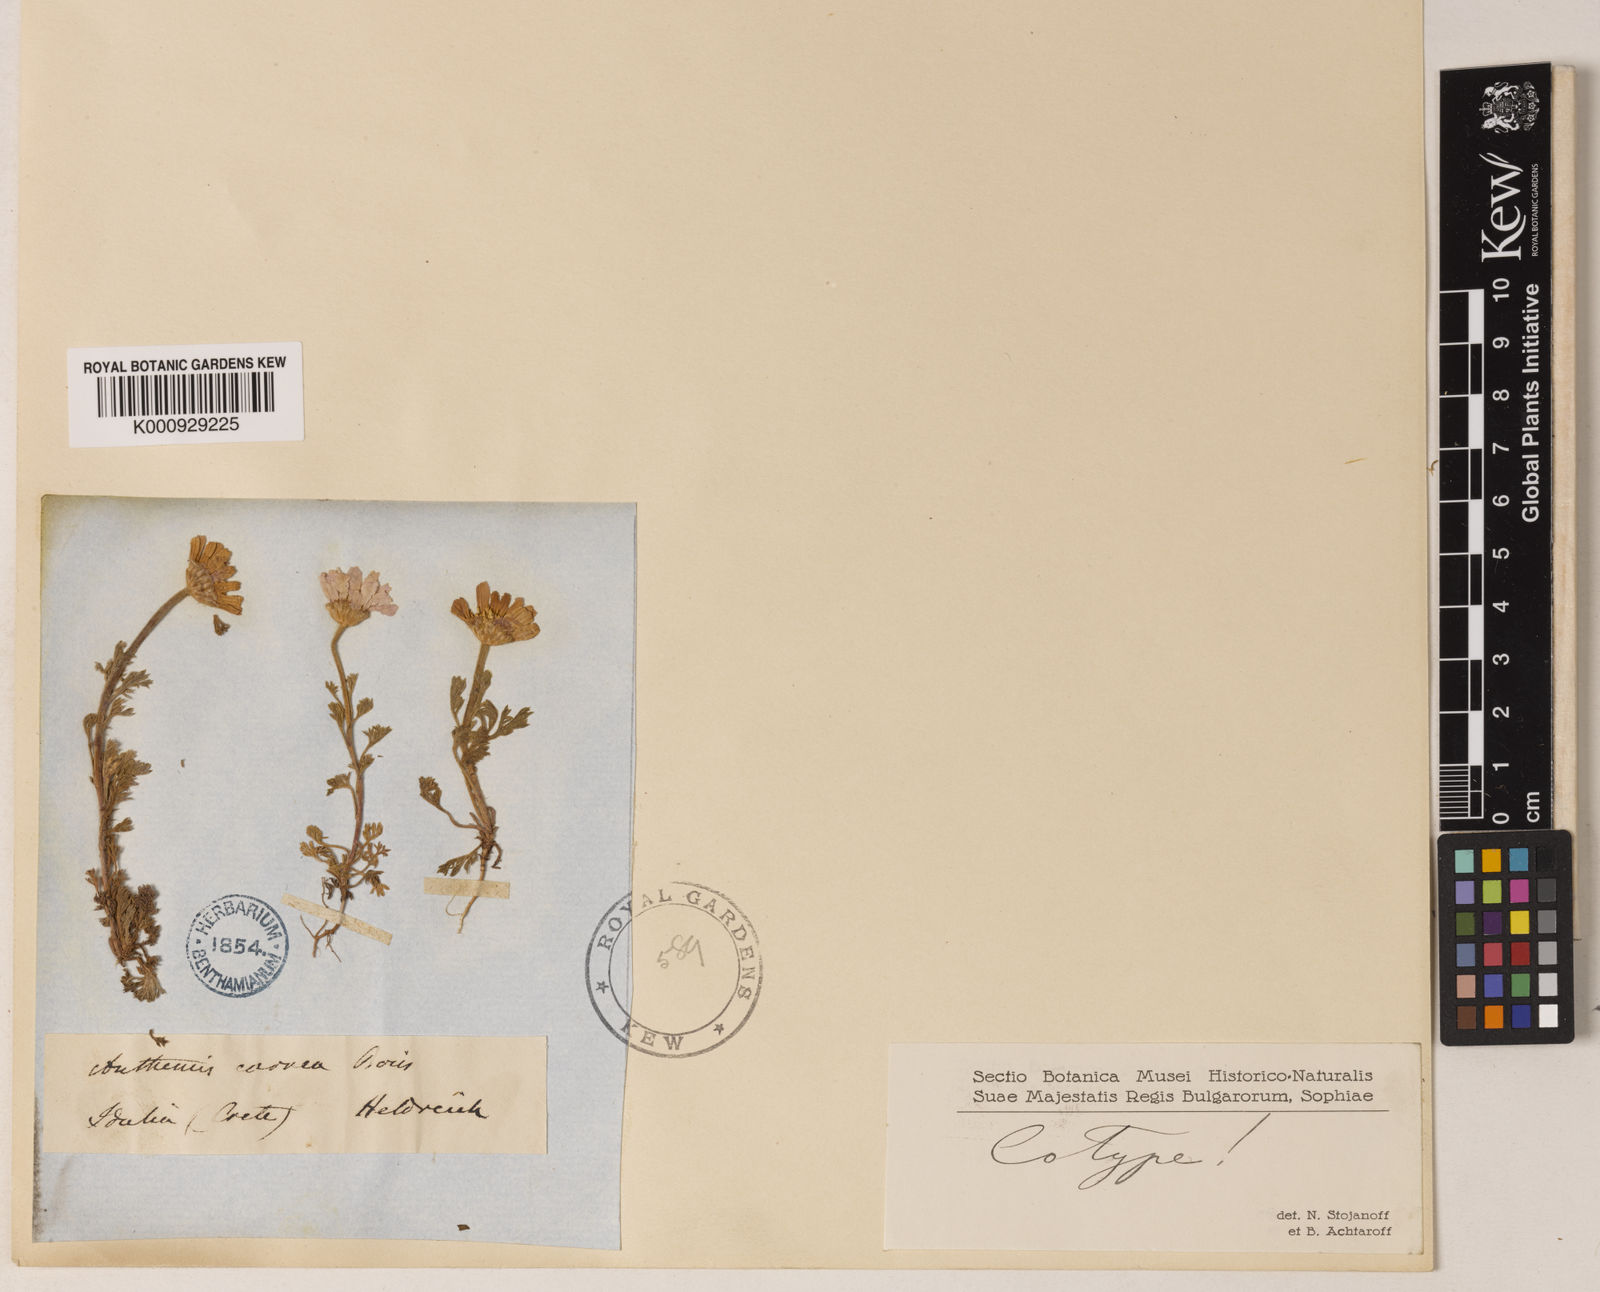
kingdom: Plantae
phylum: Tracheophyta
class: Magnoliopsida
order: Asterales
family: Asteraceae
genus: Anthemis
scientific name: Anthemis rosea
